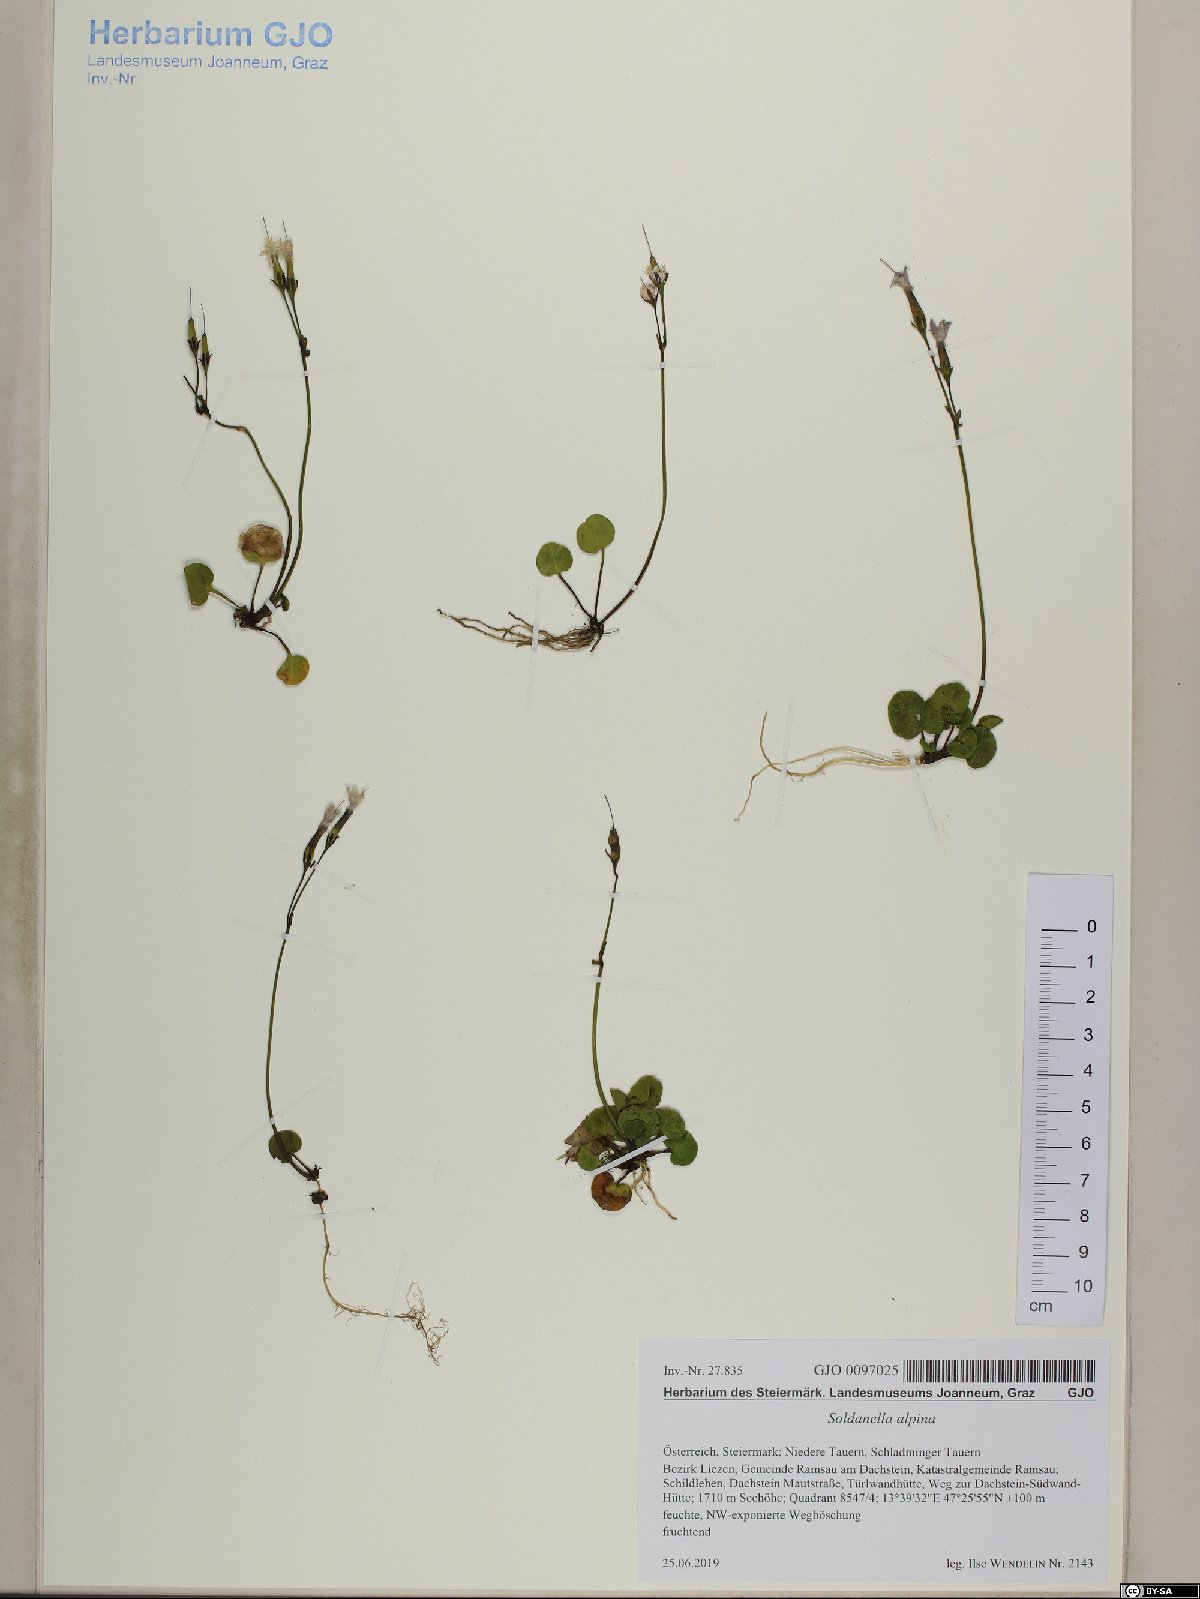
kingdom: Plantae
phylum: Tracheophyta
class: Magnoliopsida
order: Ericales
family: Primulaceae
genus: Soldanella
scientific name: Soldanella alpina
